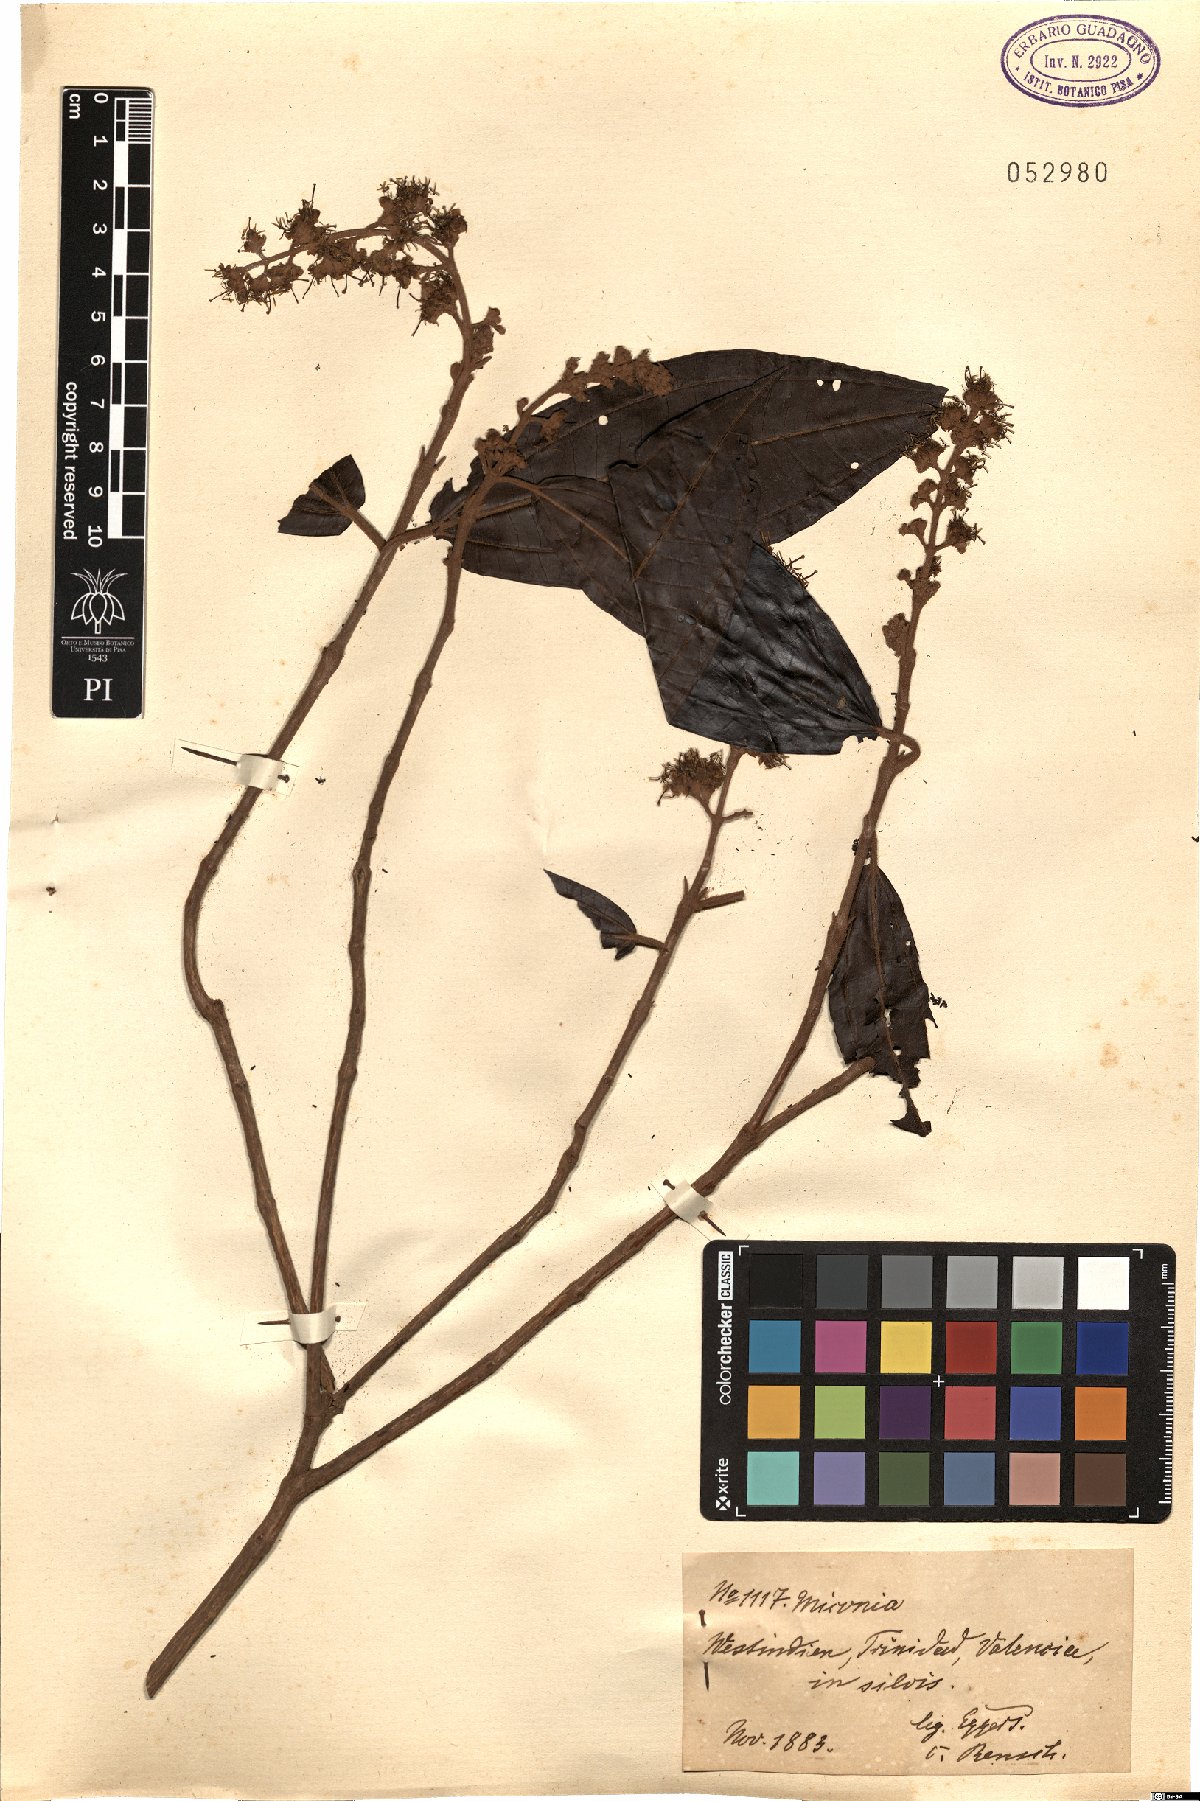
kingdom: Plantae
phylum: Tracheophyta
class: Magnoliopsida
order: Myrtales
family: Melastomataceae
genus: Miconia
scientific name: Miconia
